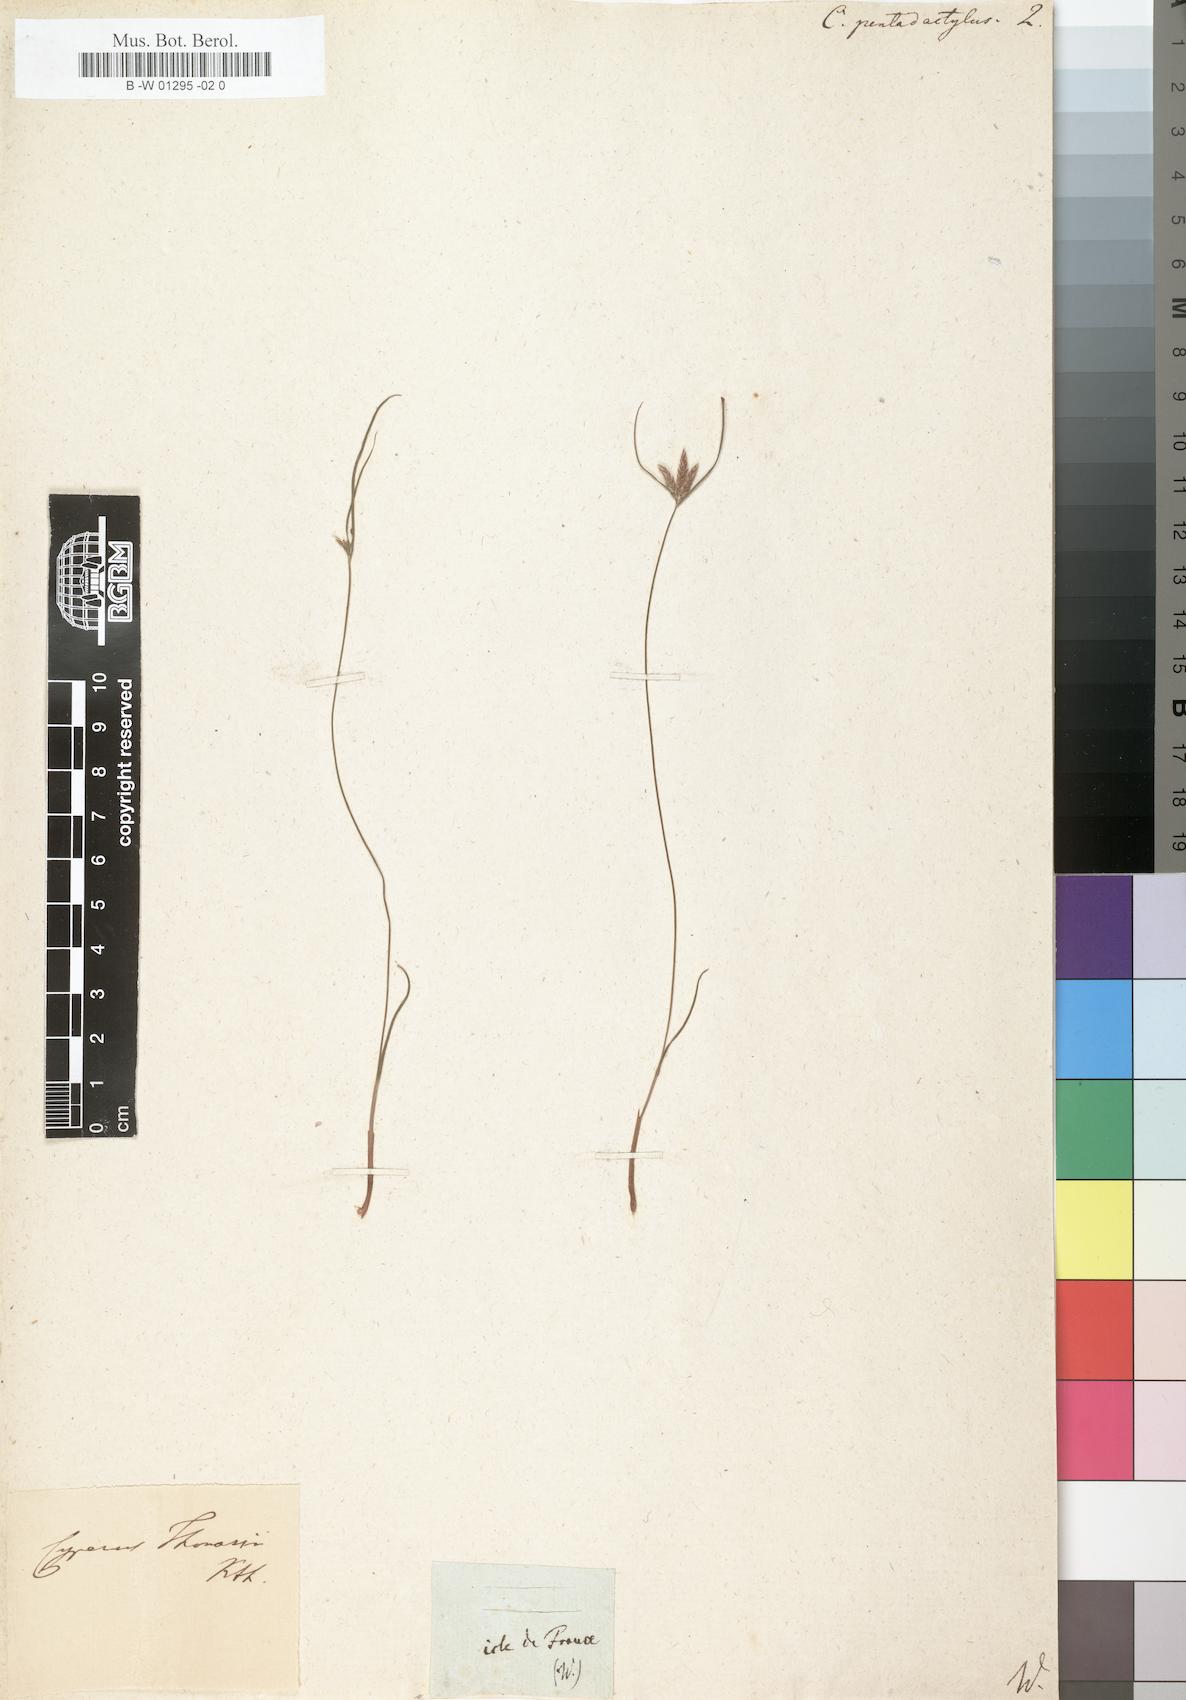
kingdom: Plantae
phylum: Tracheophyta
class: Liliopsida
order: Poales
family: Cyperaceae
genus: Cyperus
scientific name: Cyperus pentadactylus
